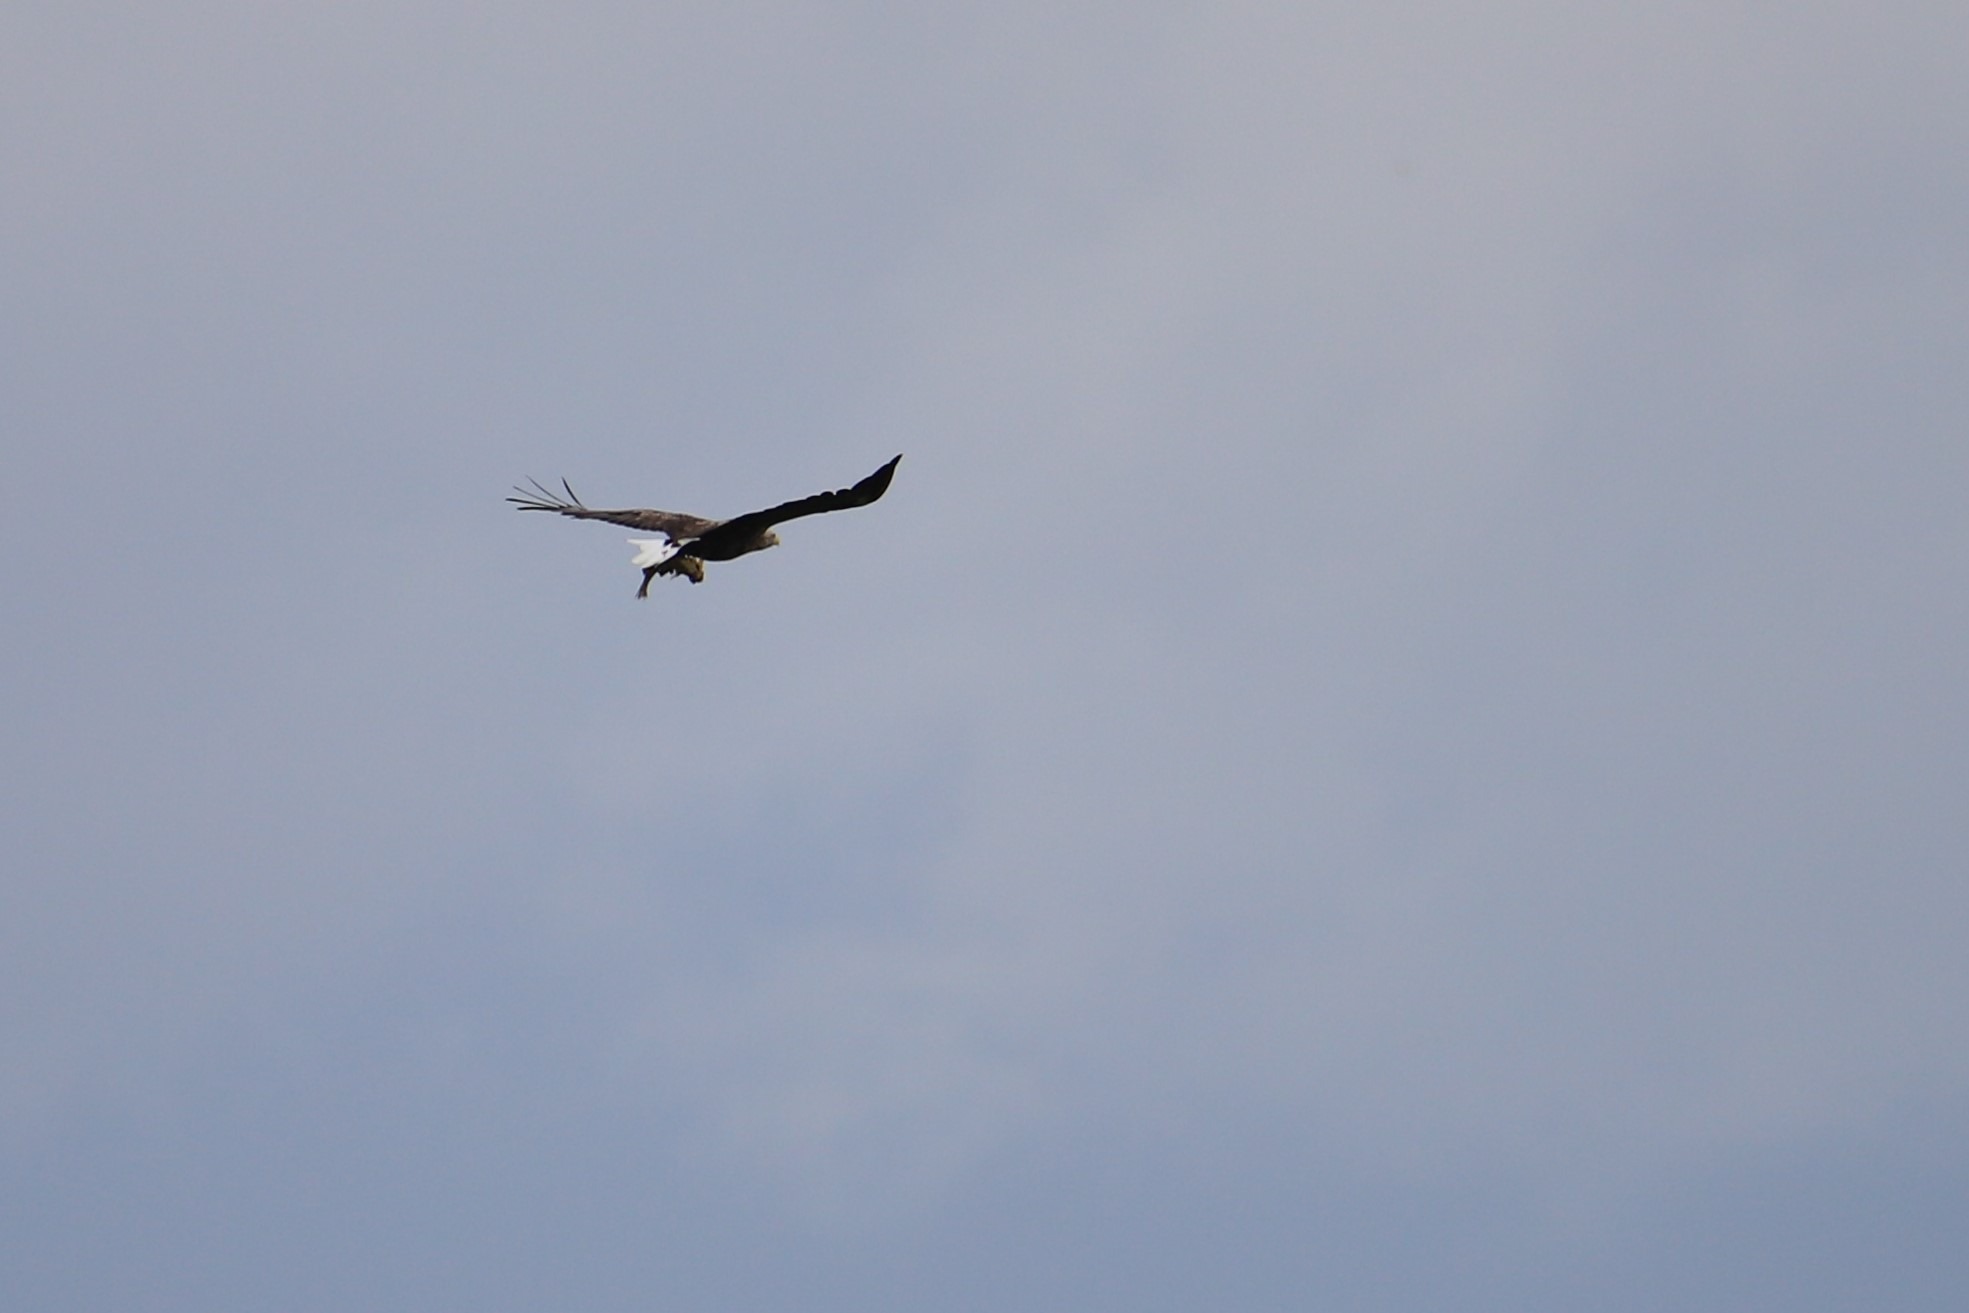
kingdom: Animalia
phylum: Chordata
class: Aves
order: Accipitriformes
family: Accipitridae
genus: Haliaeetus
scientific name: Haliaeetus albicilla
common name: Havørn
